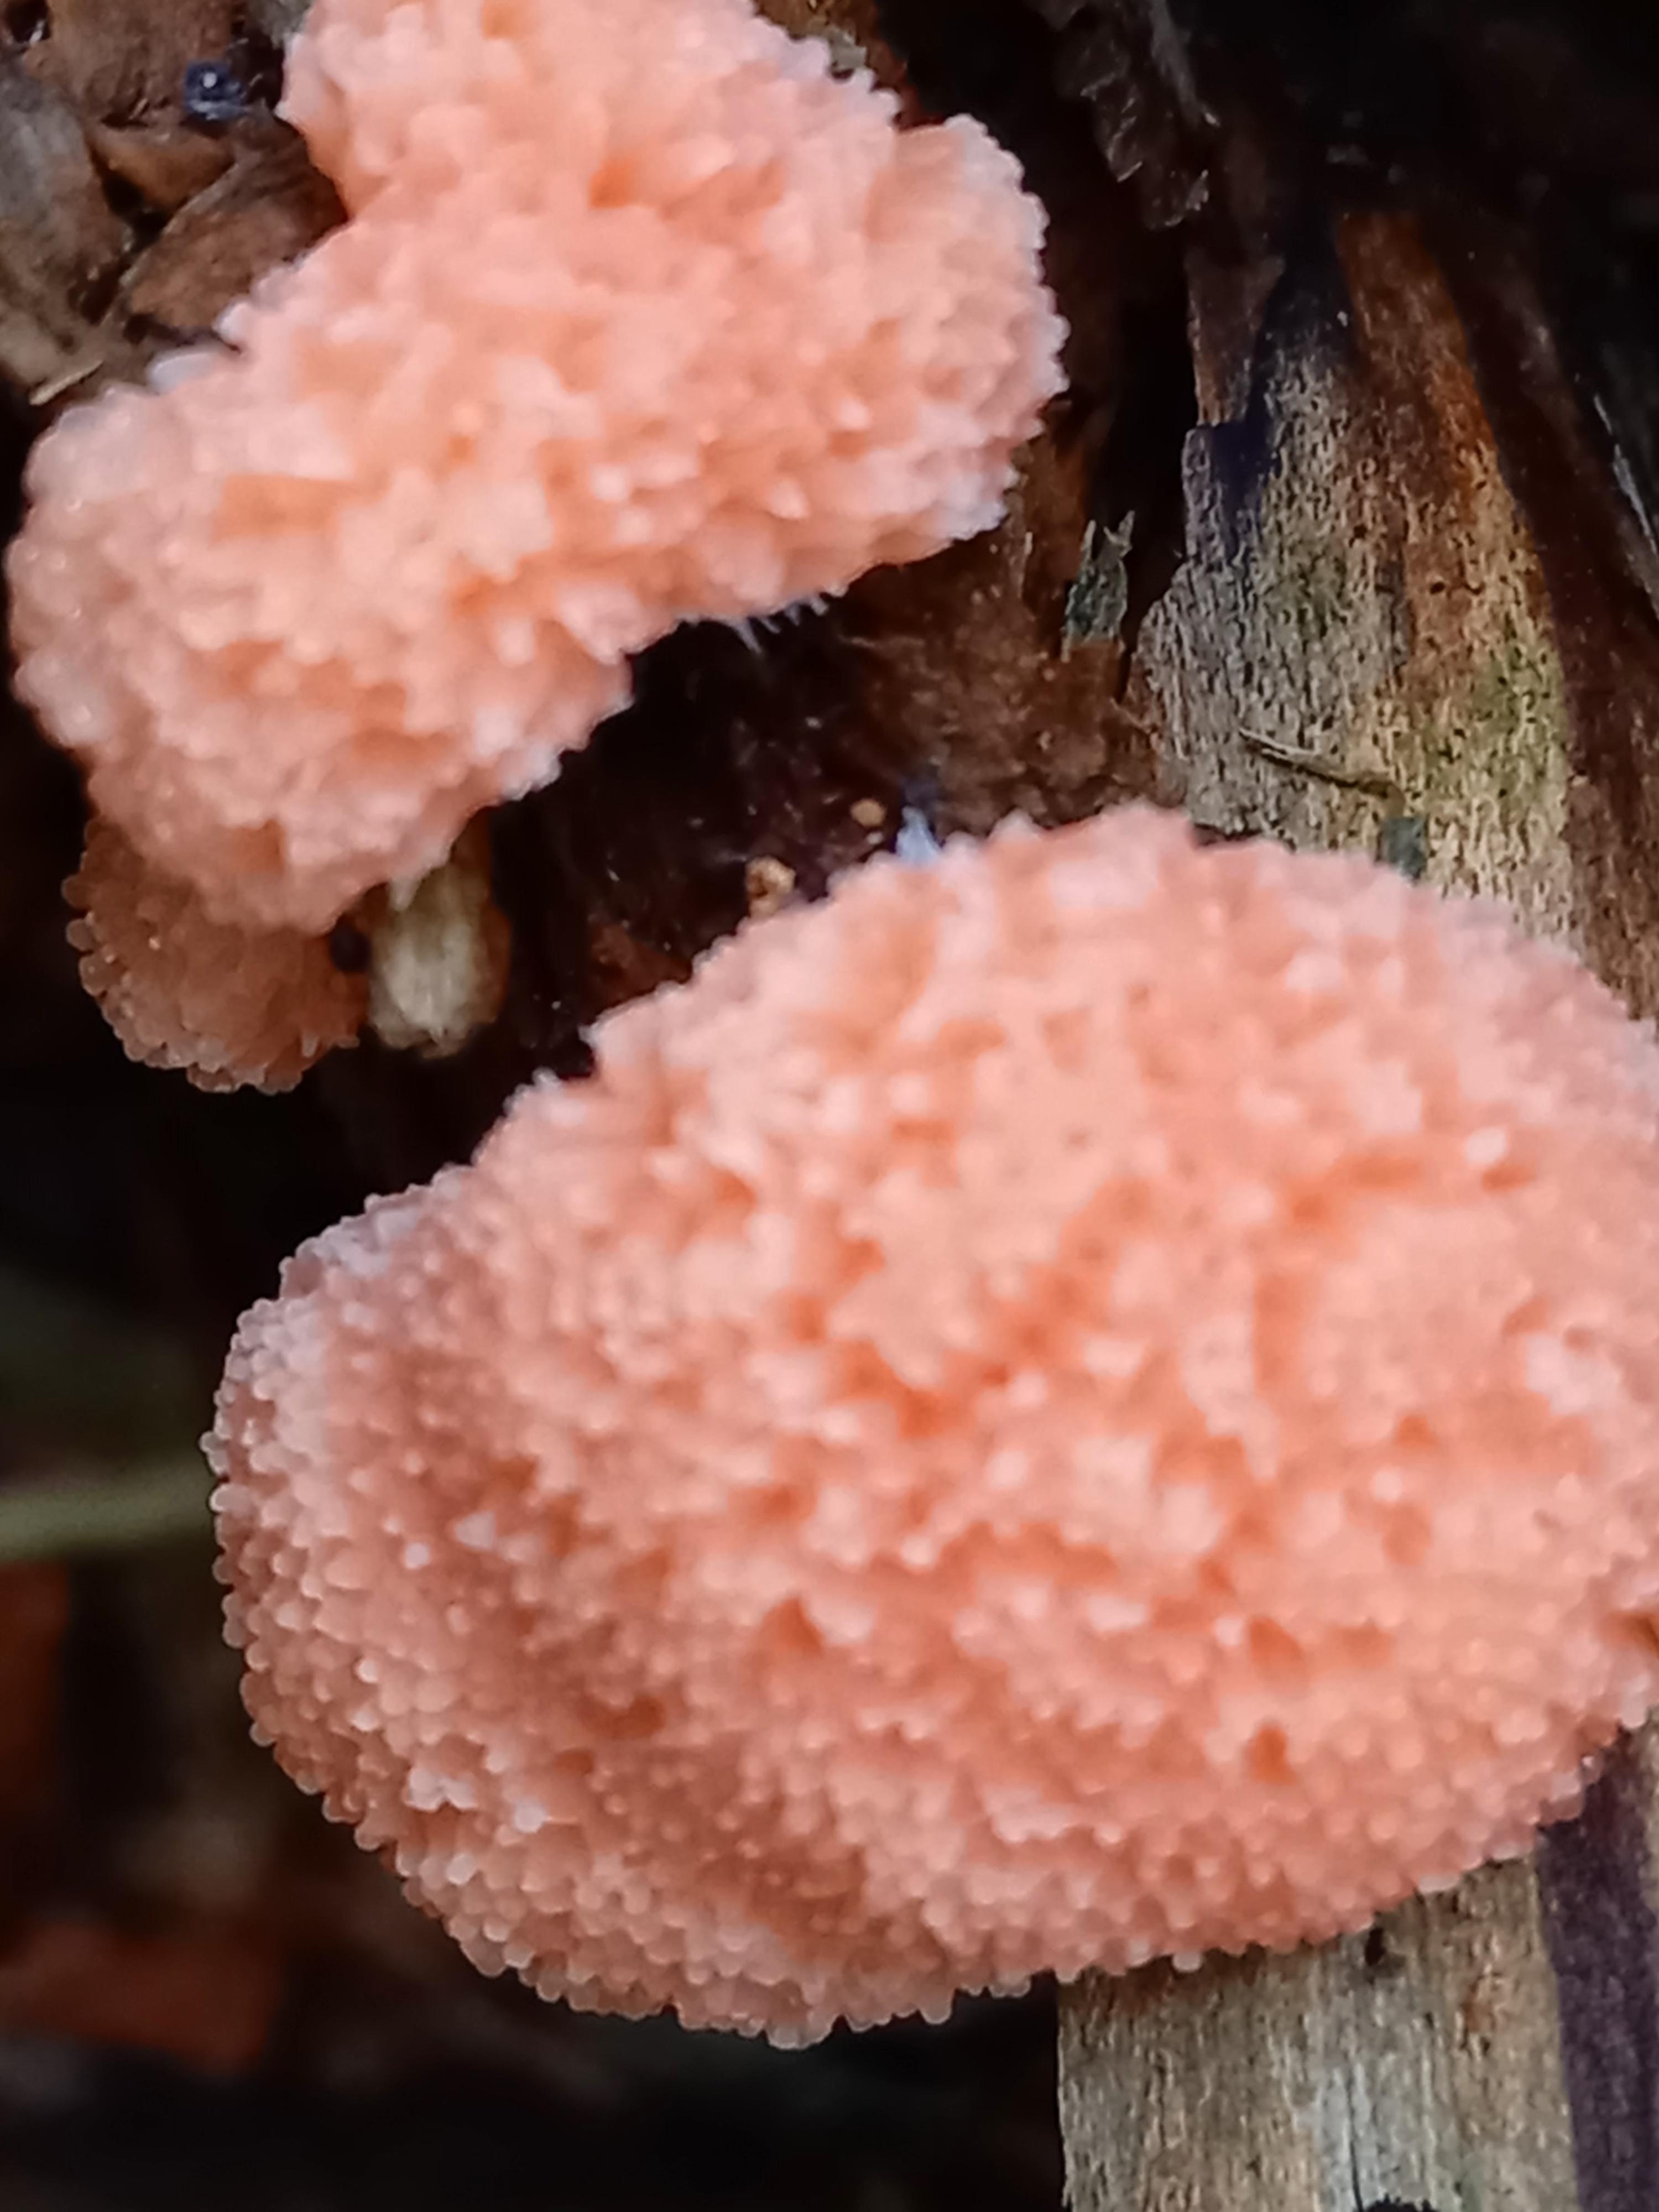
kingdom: Protozoa
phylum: Mycetozoa
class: Myxomycetes
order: Cribrariales
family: Tubiferaceae
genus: Tubifera
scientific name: Tubifera
